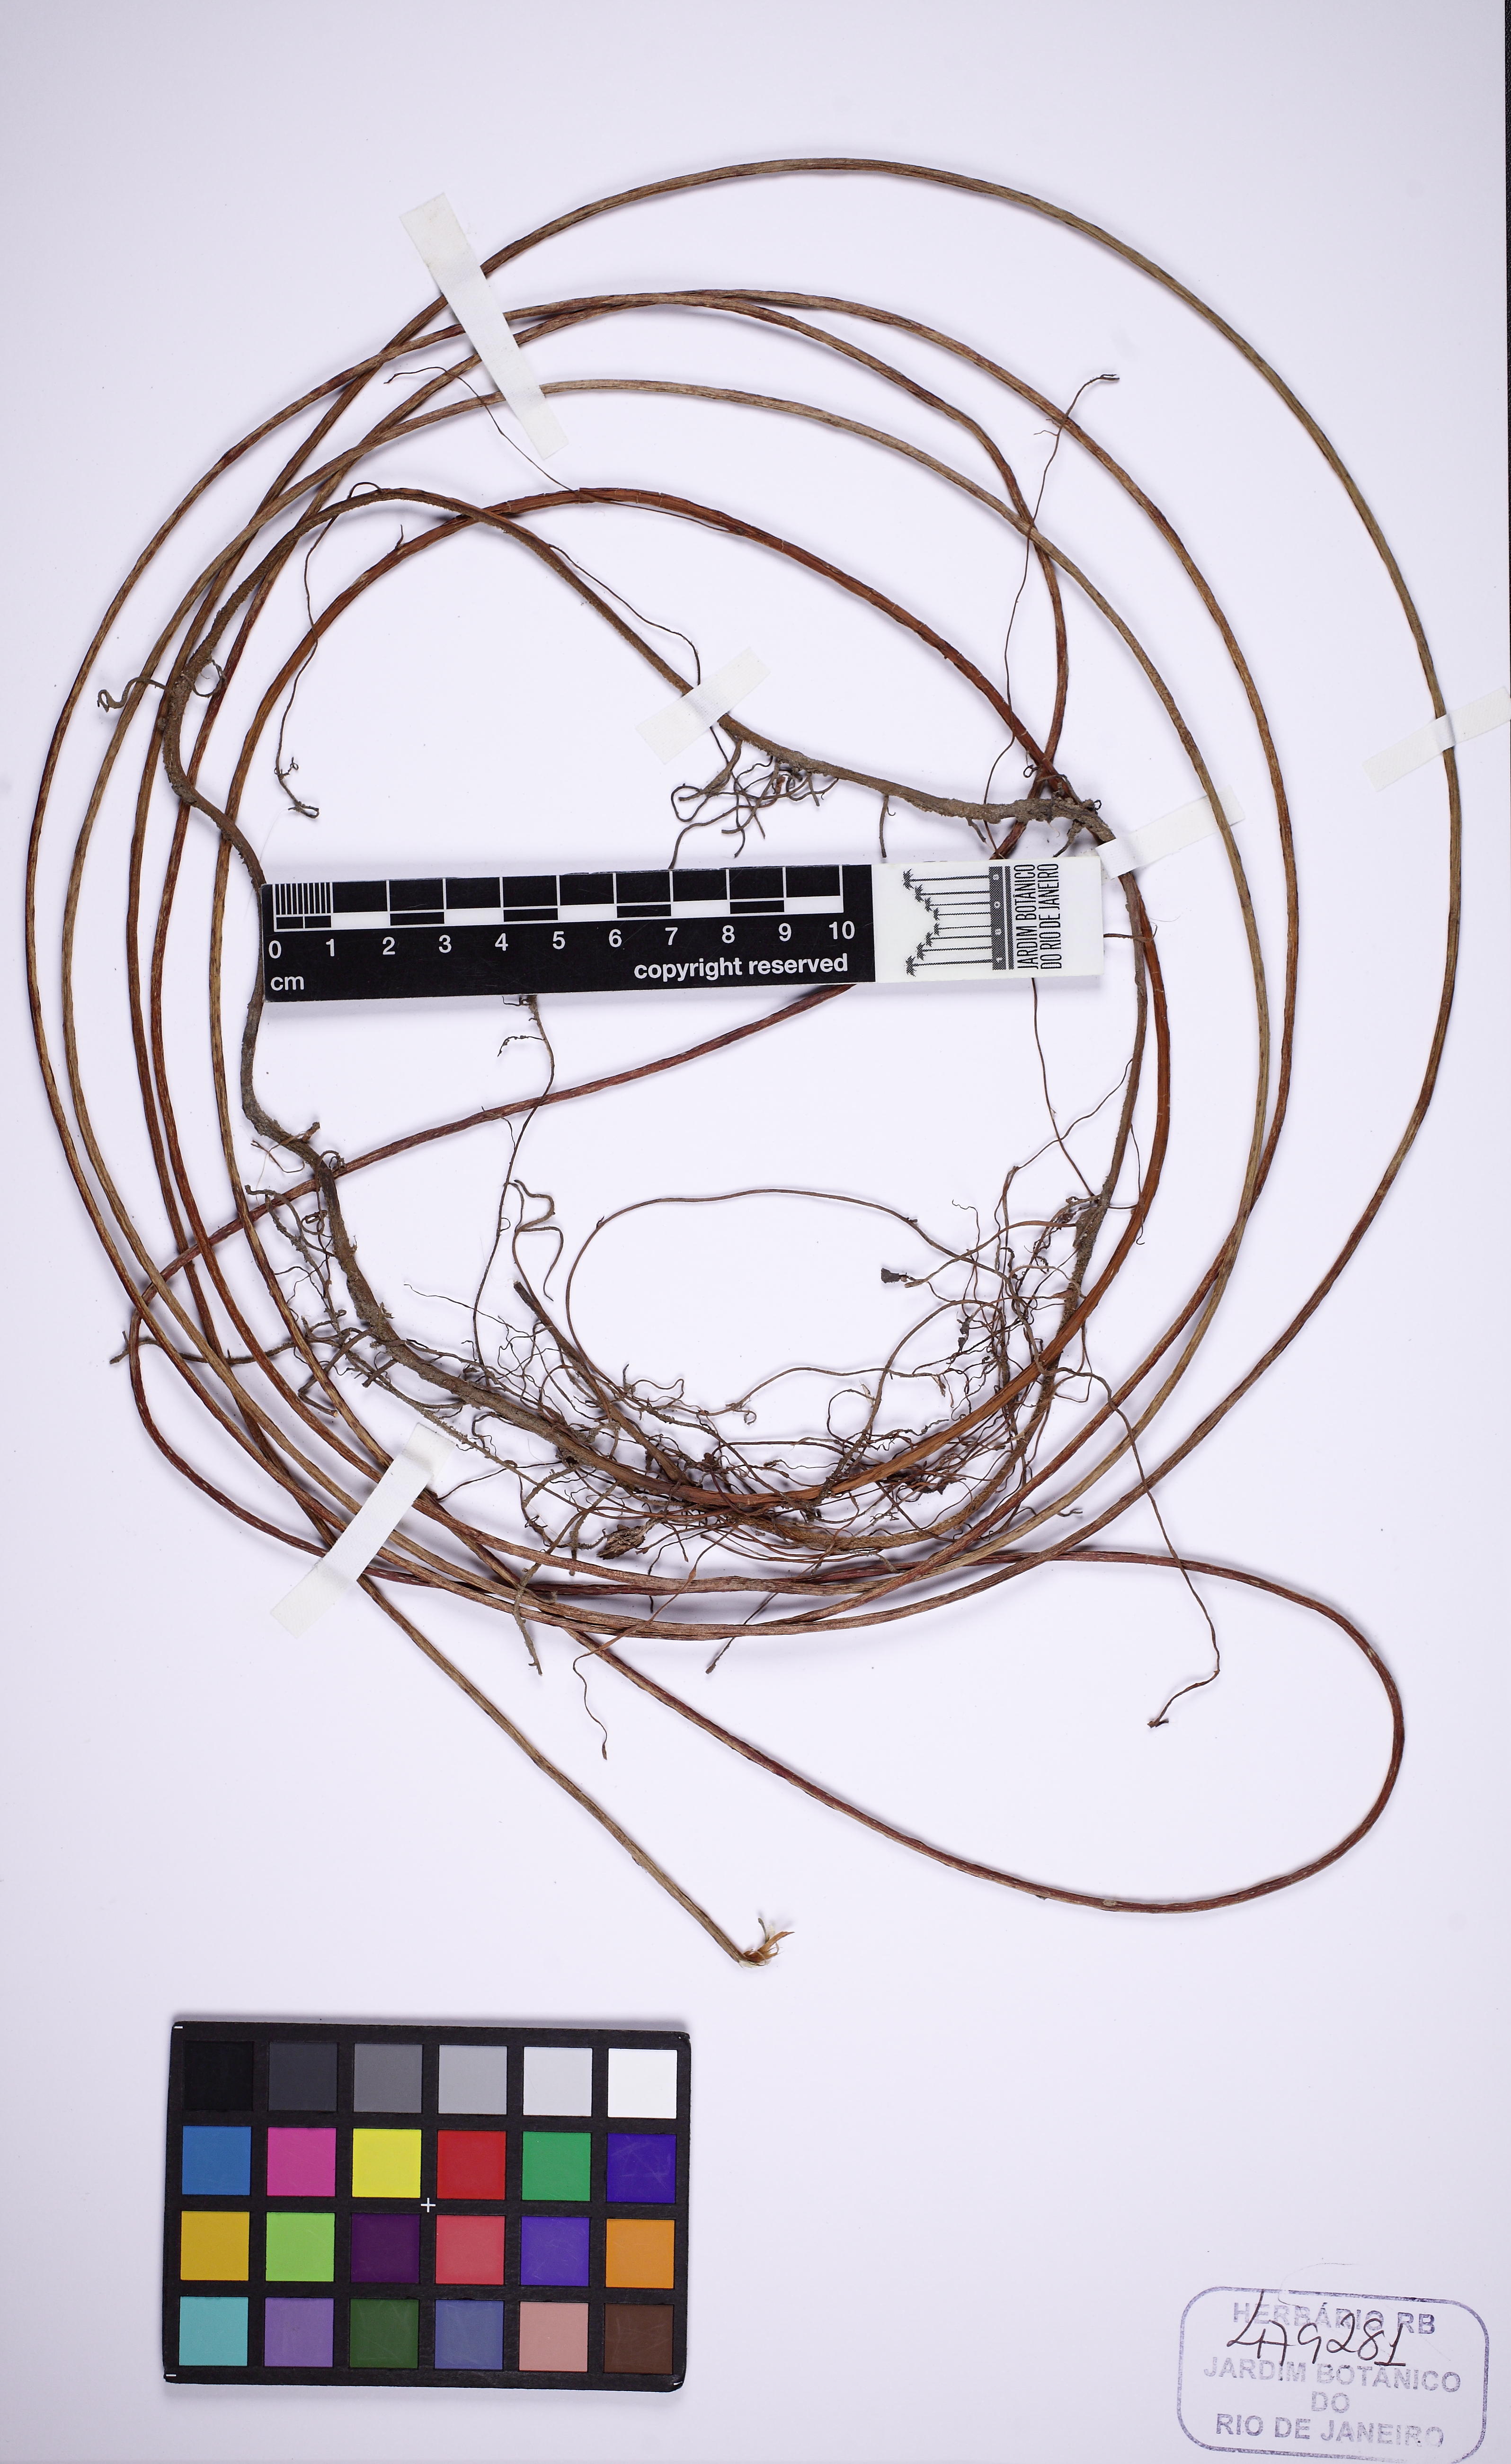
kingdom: Plantae
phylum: Tracheophyta
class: Magnoliopsida
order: Piperales
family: Piperaceae
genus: Peperomia
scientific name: Peperomia macrostachyos
